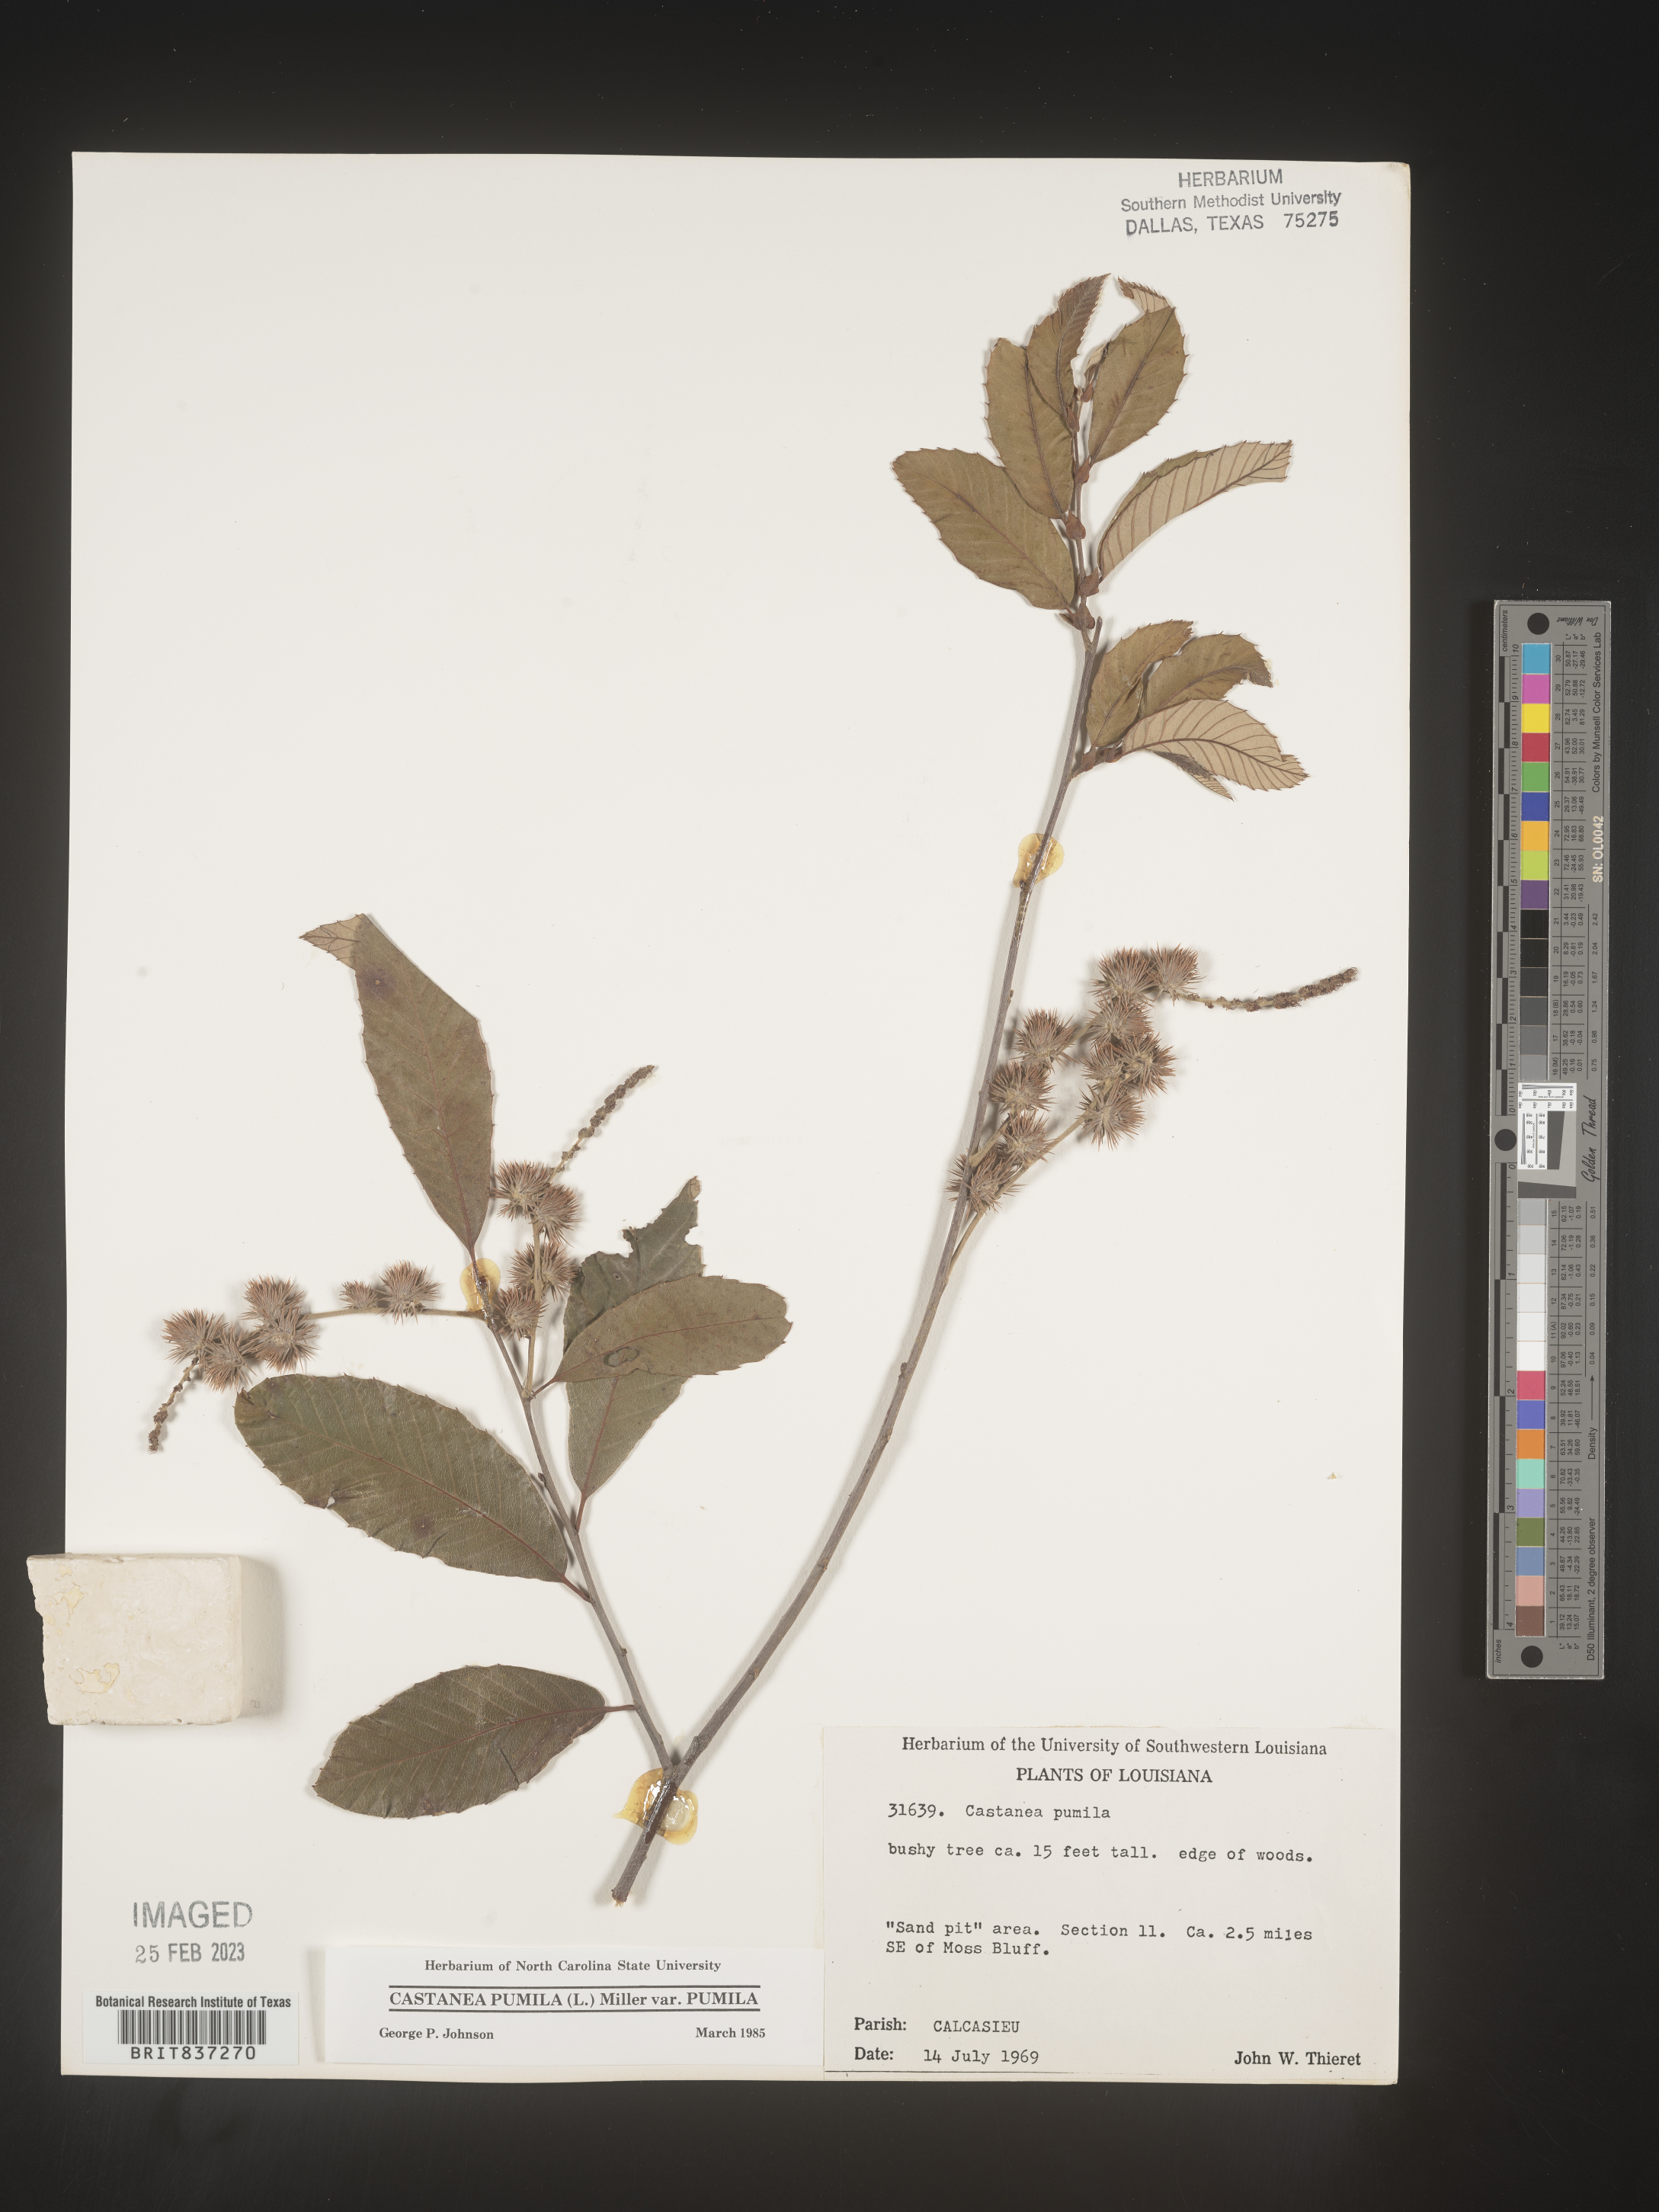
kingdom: Plantae
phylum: Tracheophyta
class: Magnoliopsida
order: Fagales
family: Fagaceae
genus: Castanea
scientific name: Castanea pumila
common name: Chinkapin
